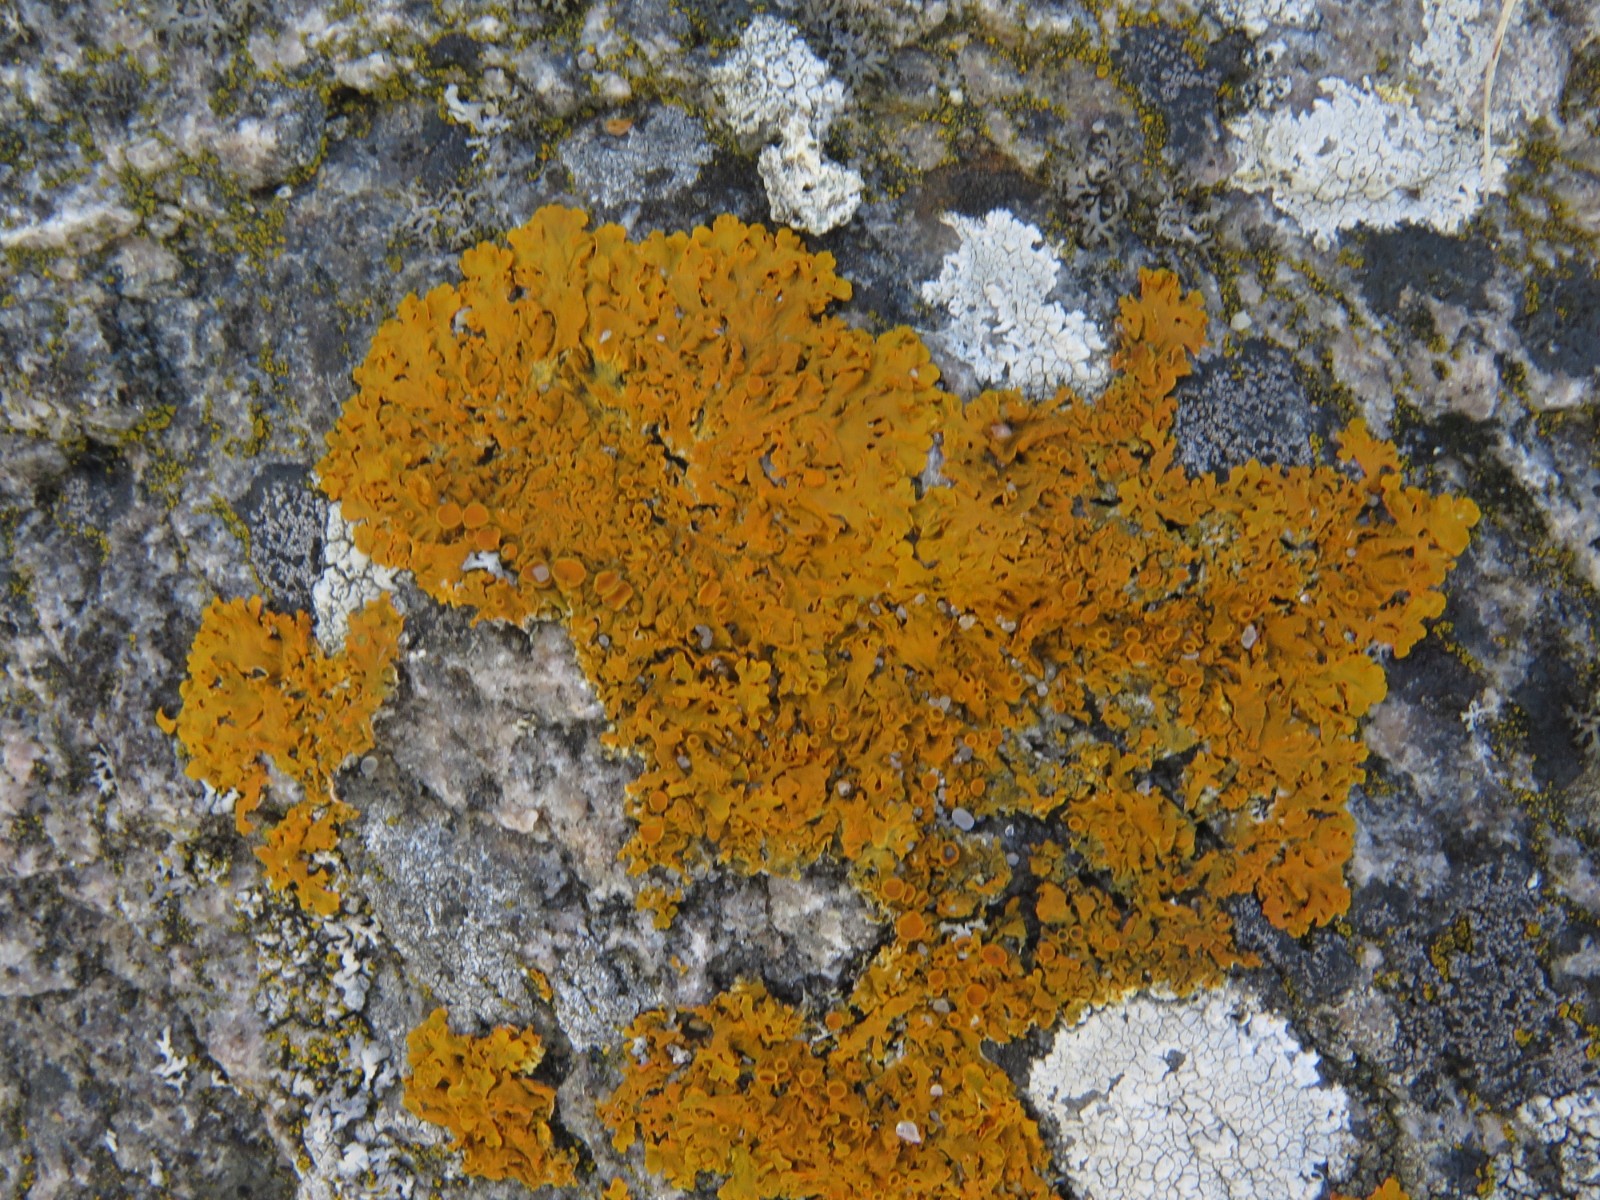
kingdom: Fungi
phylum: Ascomycota
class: Lecanoromycetes
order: Teloschistales
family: Teloschistaceae
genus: Xanthoria
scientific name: Xanthoria aureola
